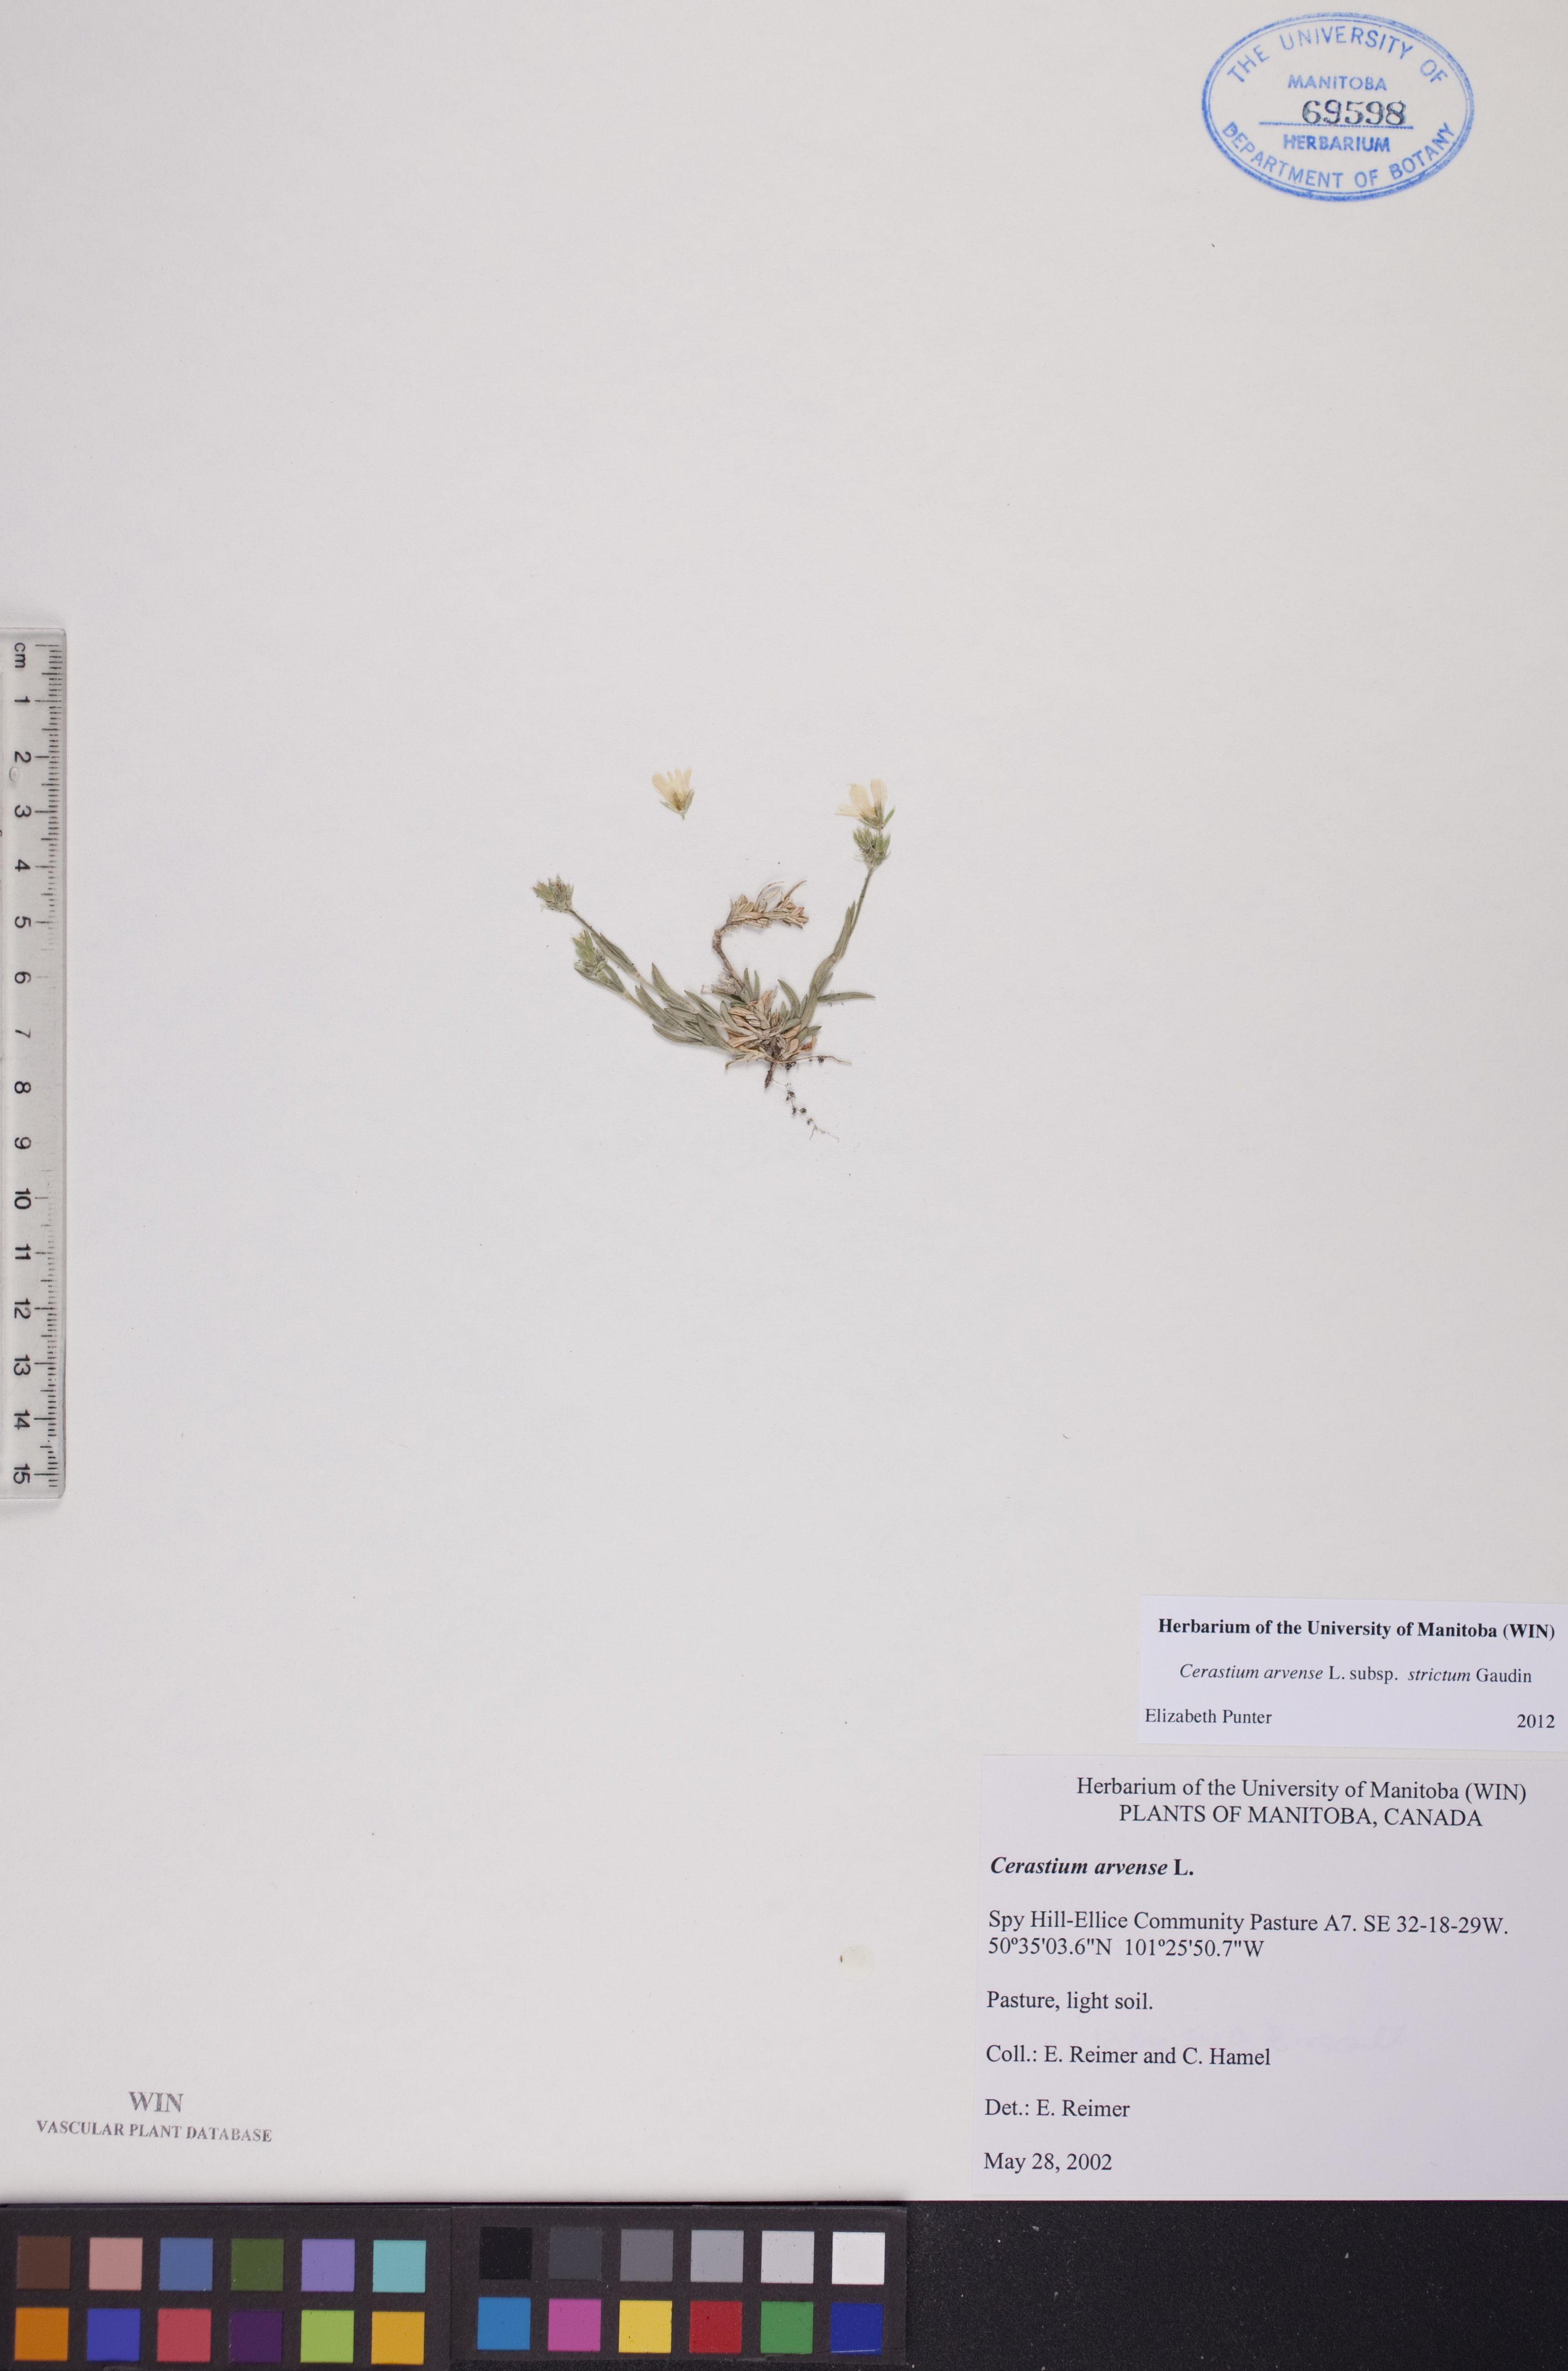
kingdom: Plantae
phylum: Tracheophyta
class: Magnoliopsida
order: Caryophyllales
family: Caryophyllaceae
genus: Cerastium
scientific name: Cerastium elongatum
